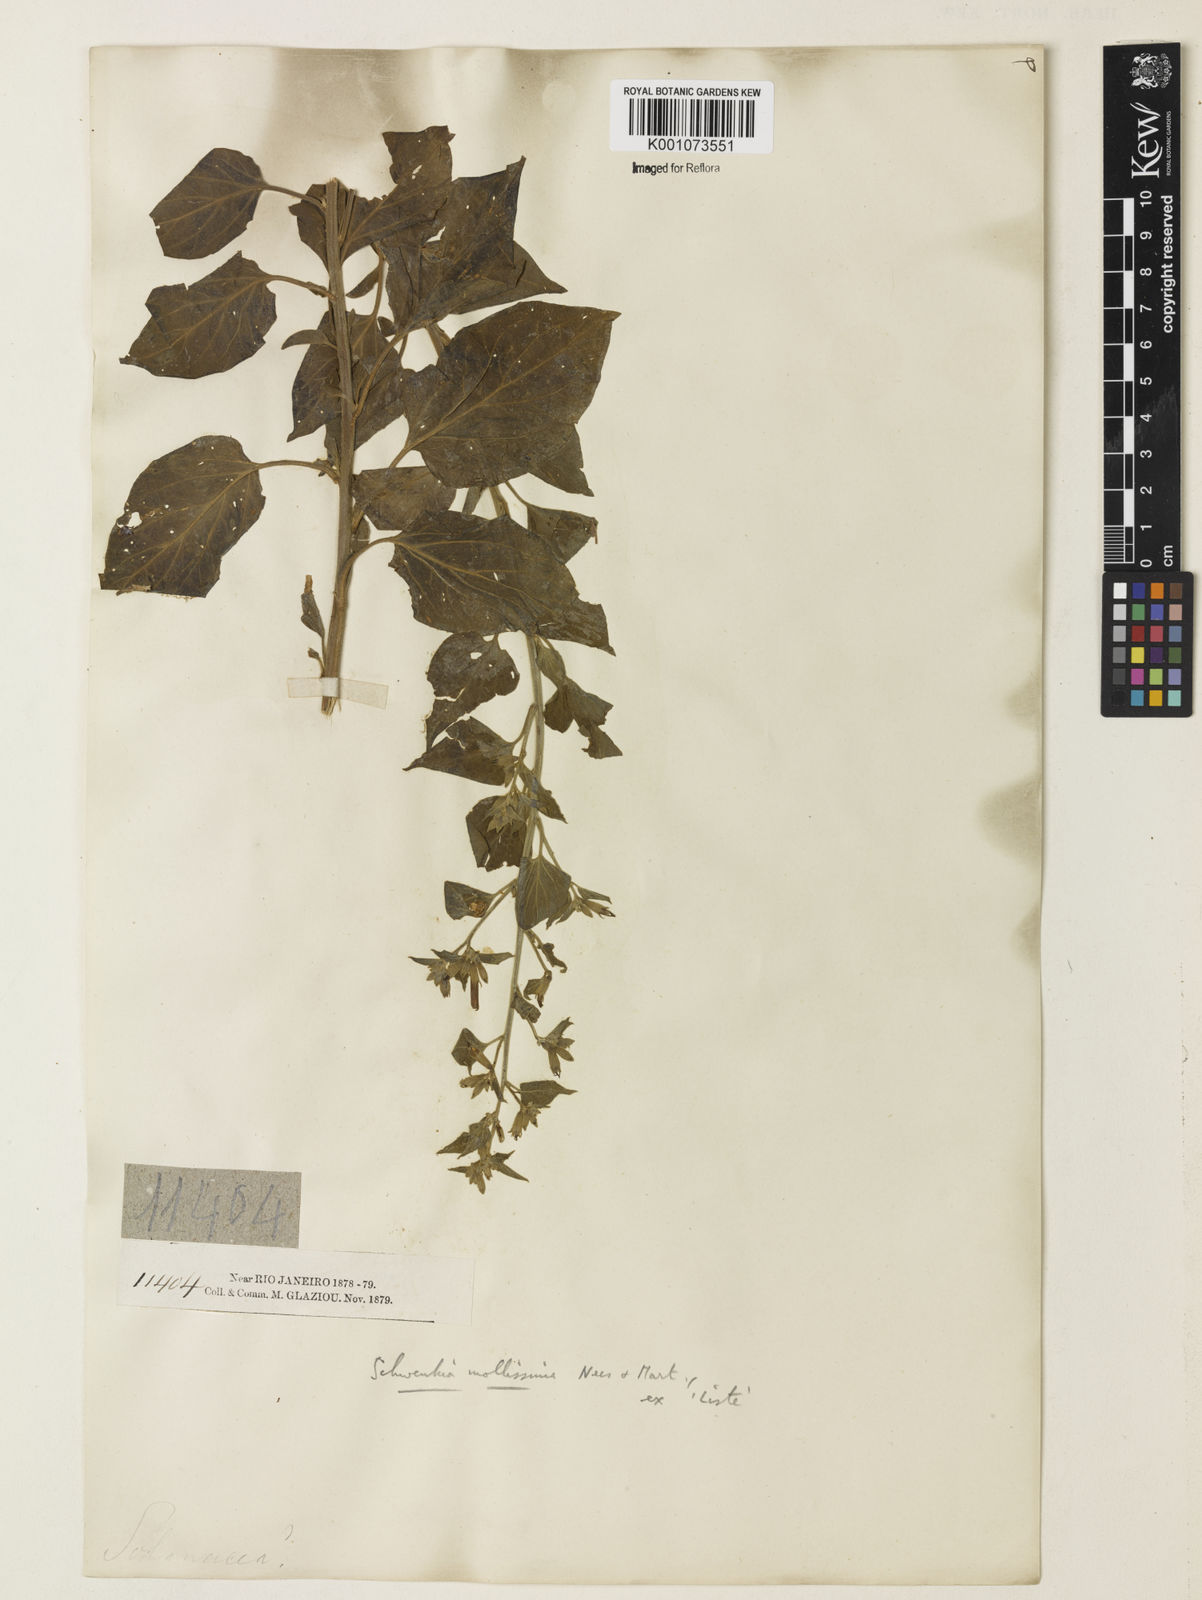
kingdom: Plantae
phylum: Tracheophyta
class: Magnoliopsida
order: Solanales
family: Solanaceae
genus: Schwenckia
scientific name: Schwenckia mollissima
